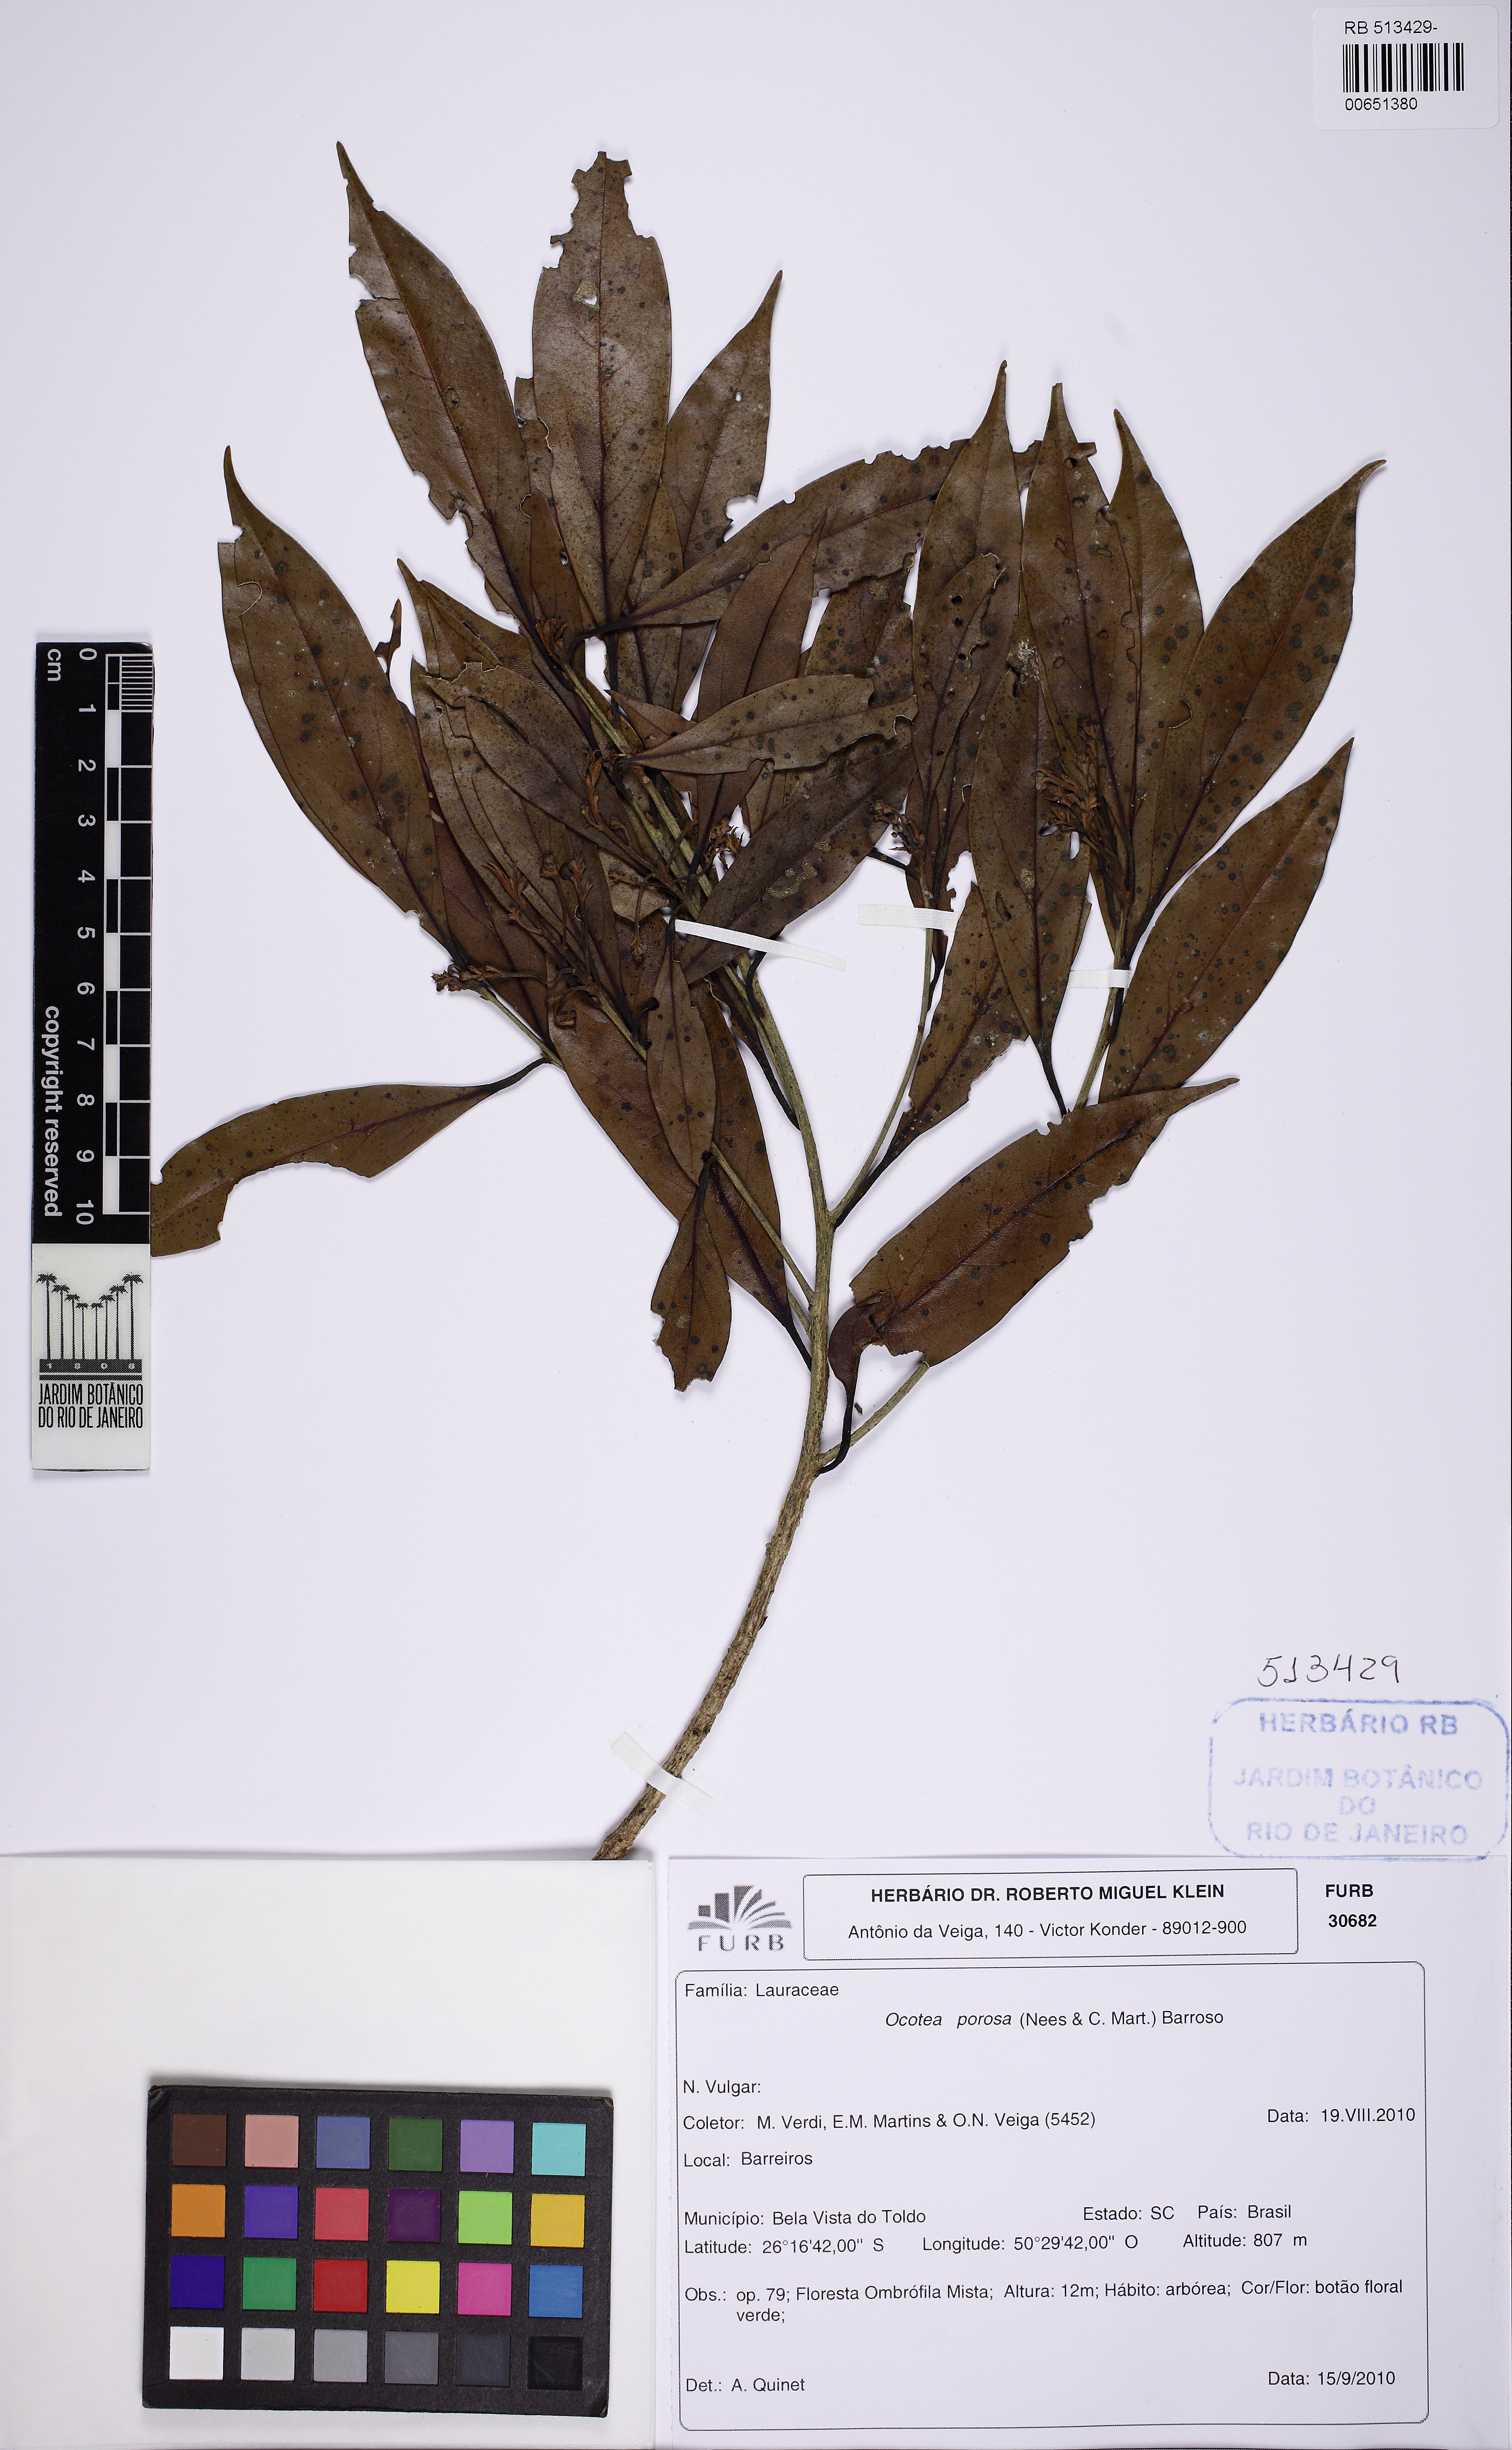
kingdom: Plantae
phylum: Tracheophyta
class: Magnoliopsida
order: Laurales
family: Lauraceae
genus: Ocotea
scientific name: Ocotea porosa
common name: Brazilian-walnut
